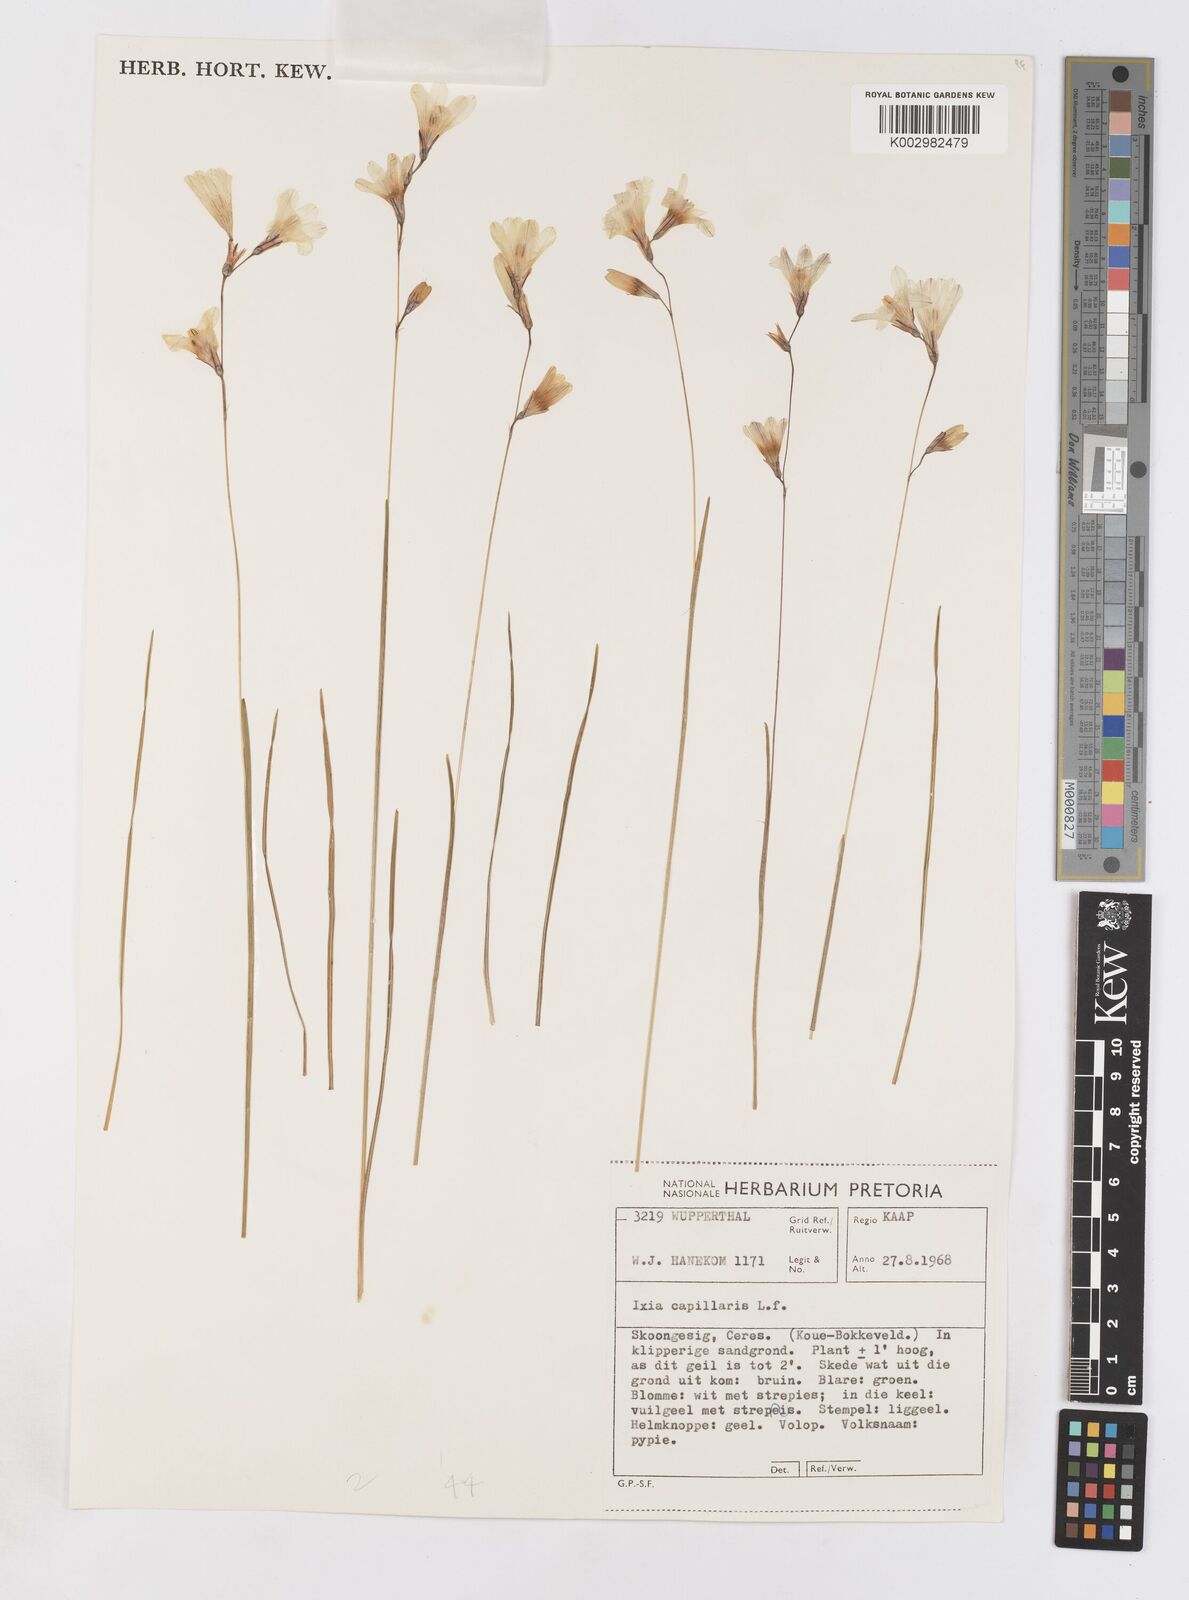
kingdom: Plantae
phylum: Tracheophyta
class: Liliopsida
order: Asparagales
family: Iridaceae
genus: Ixia
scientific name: Ixia capillaris
